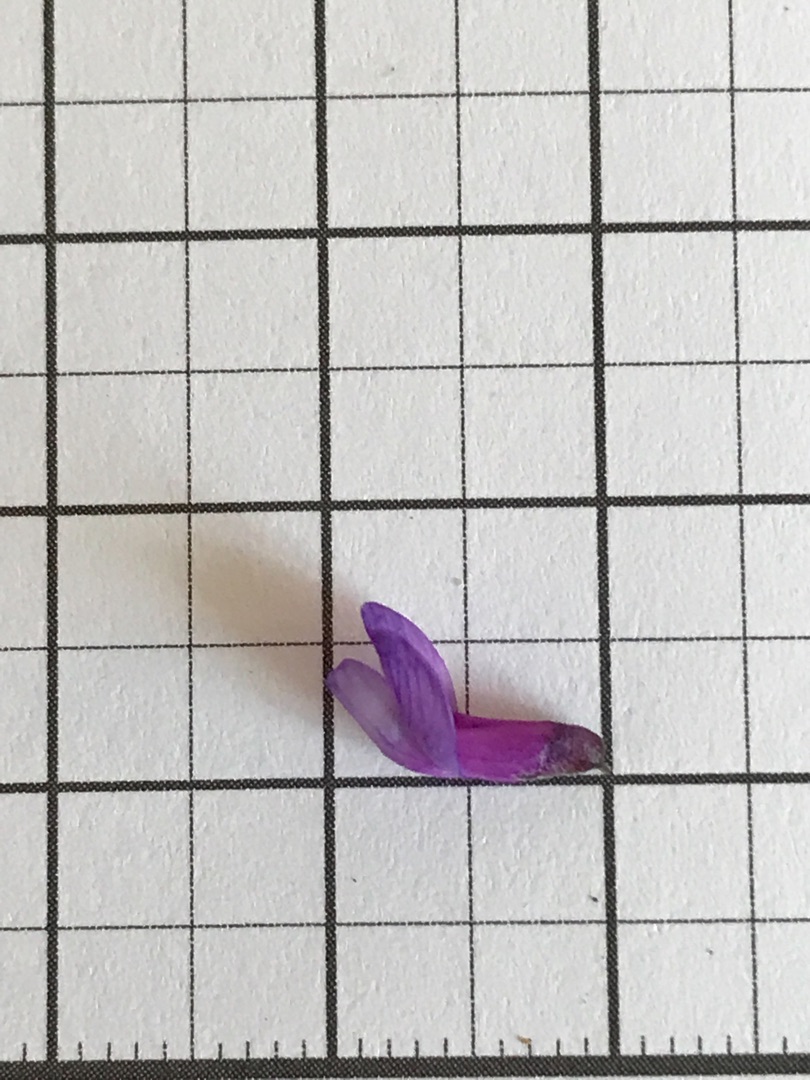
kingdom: Plantae
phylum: Tracheophyta
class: Magnoliopsida
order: Fabales
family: Fabaceae
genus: Vicia
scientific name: Vicia cracca
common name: Muse-vikke
